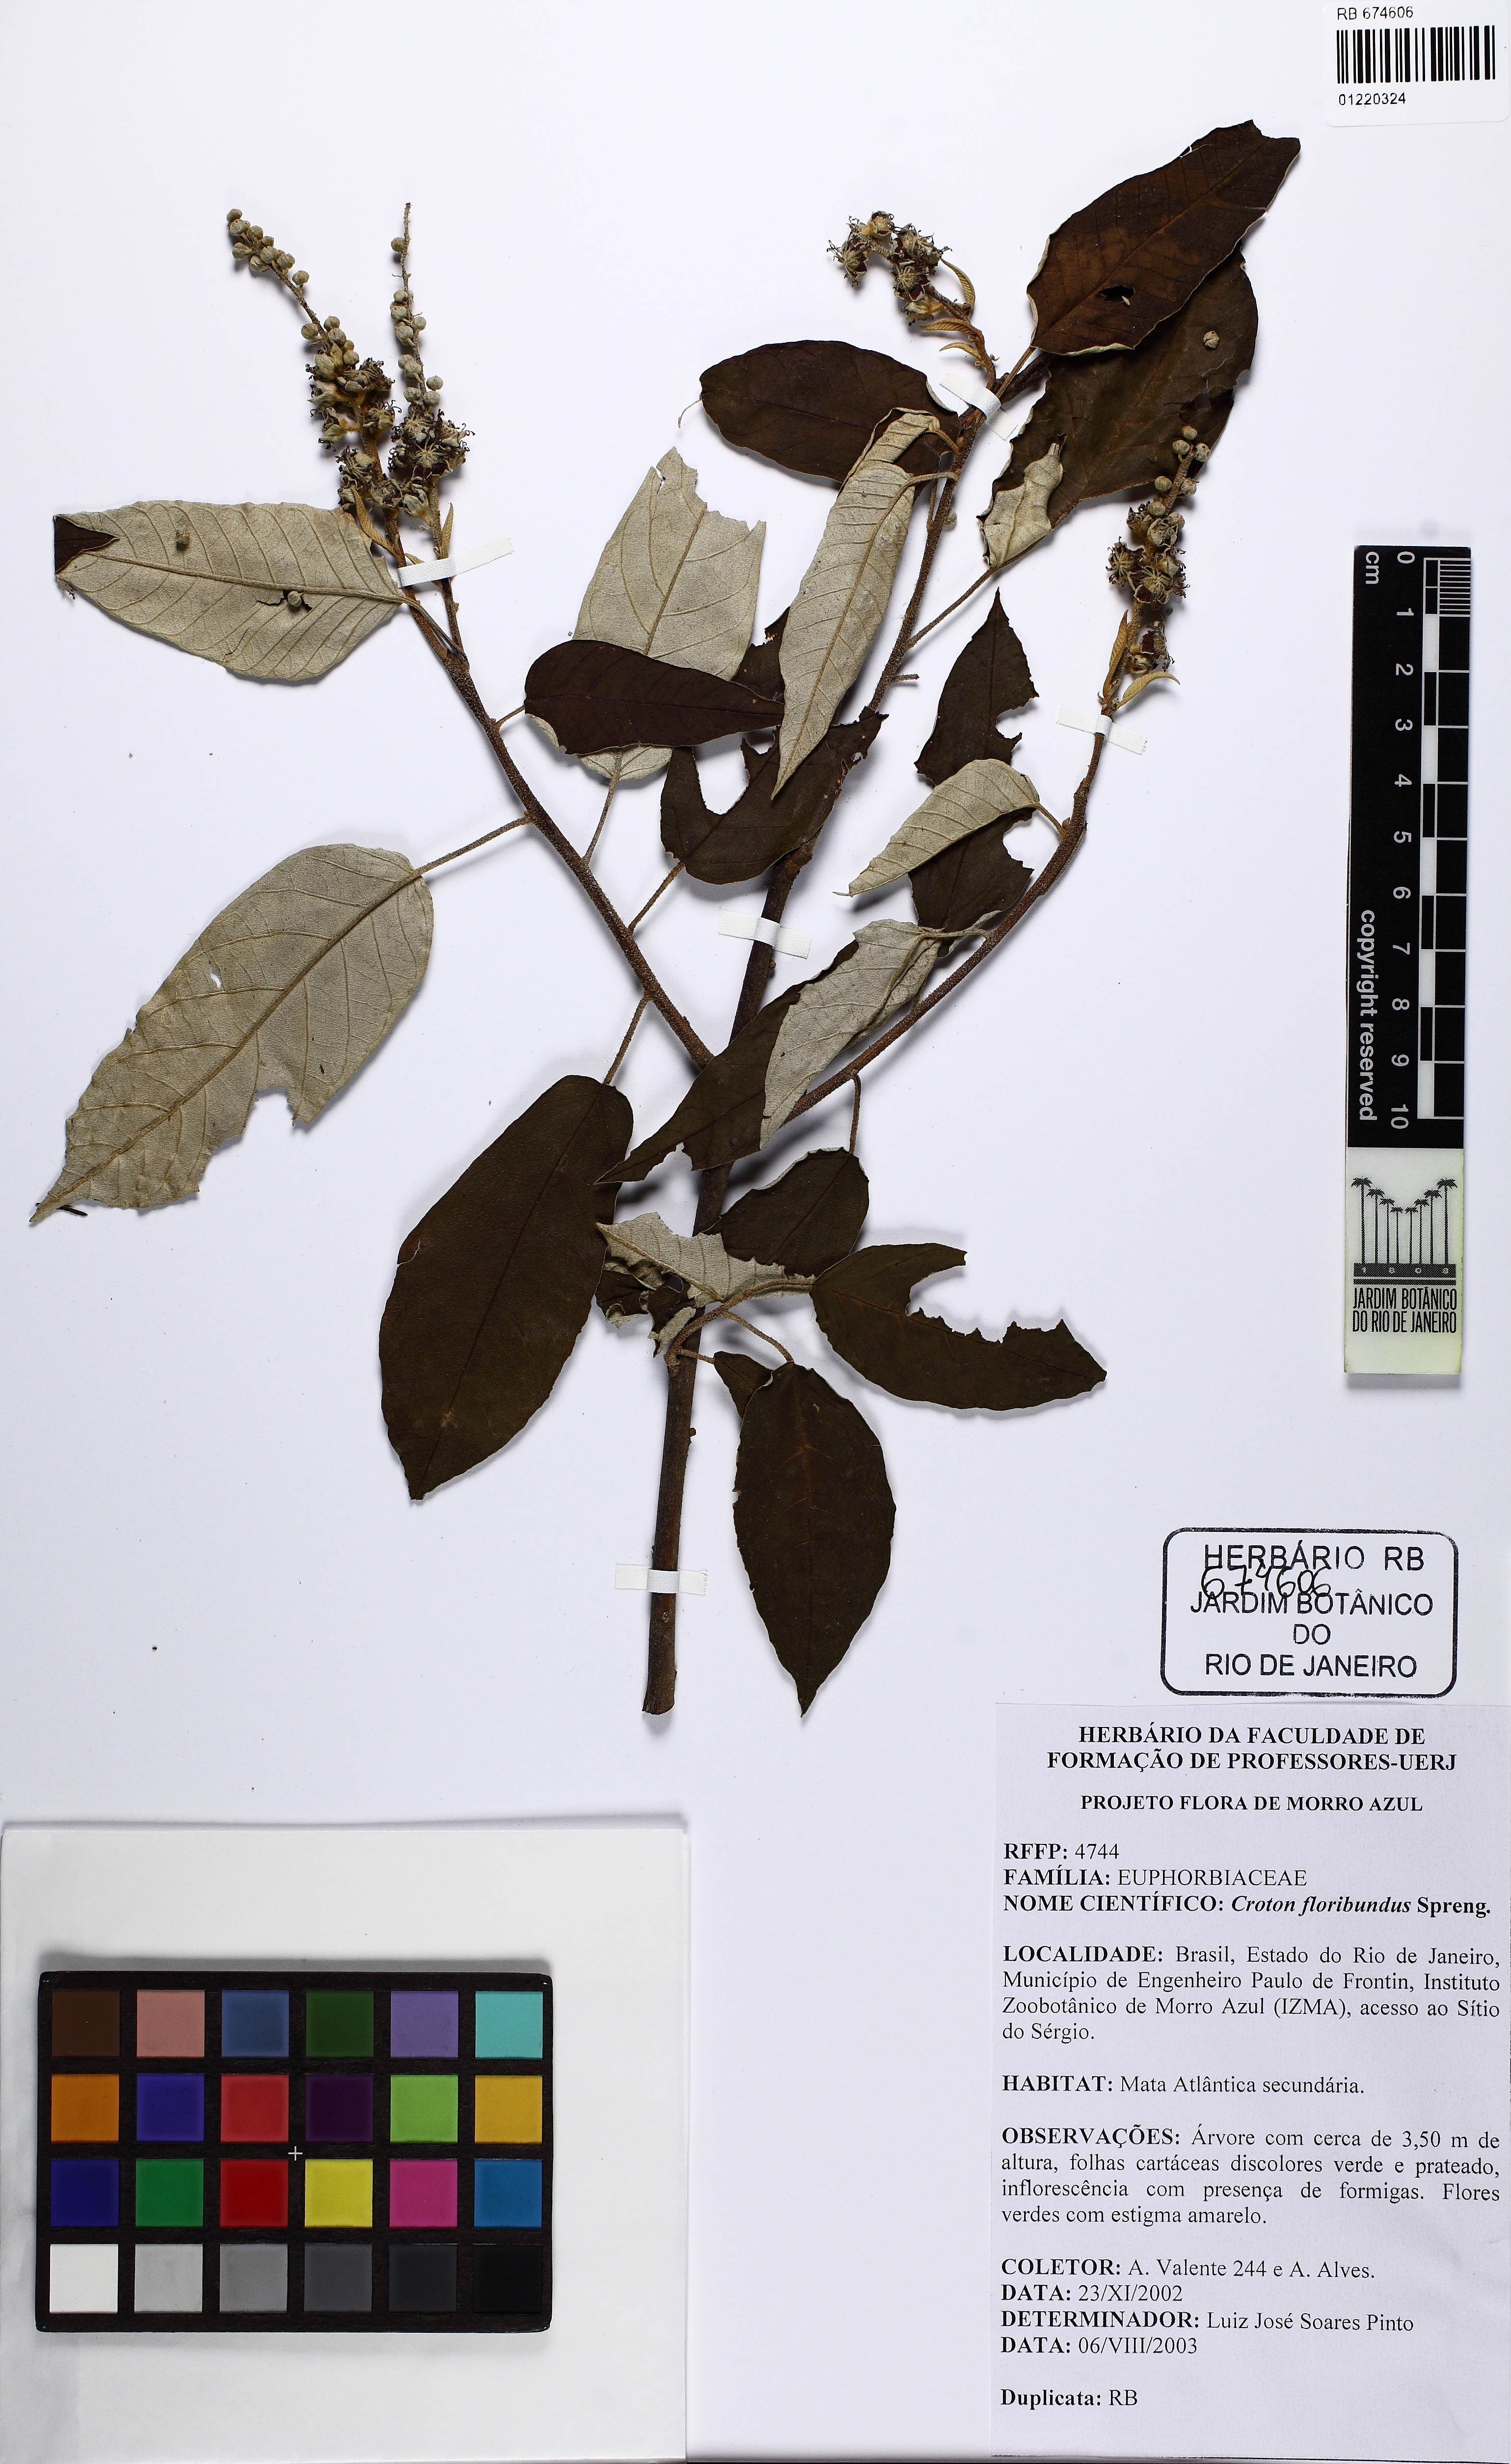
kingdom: Plantae
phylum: Tracheophyta
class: Magnoliopsida
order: Malpighiales
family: Euphorbiaceae
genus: Croton
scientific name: Croton floribundus
